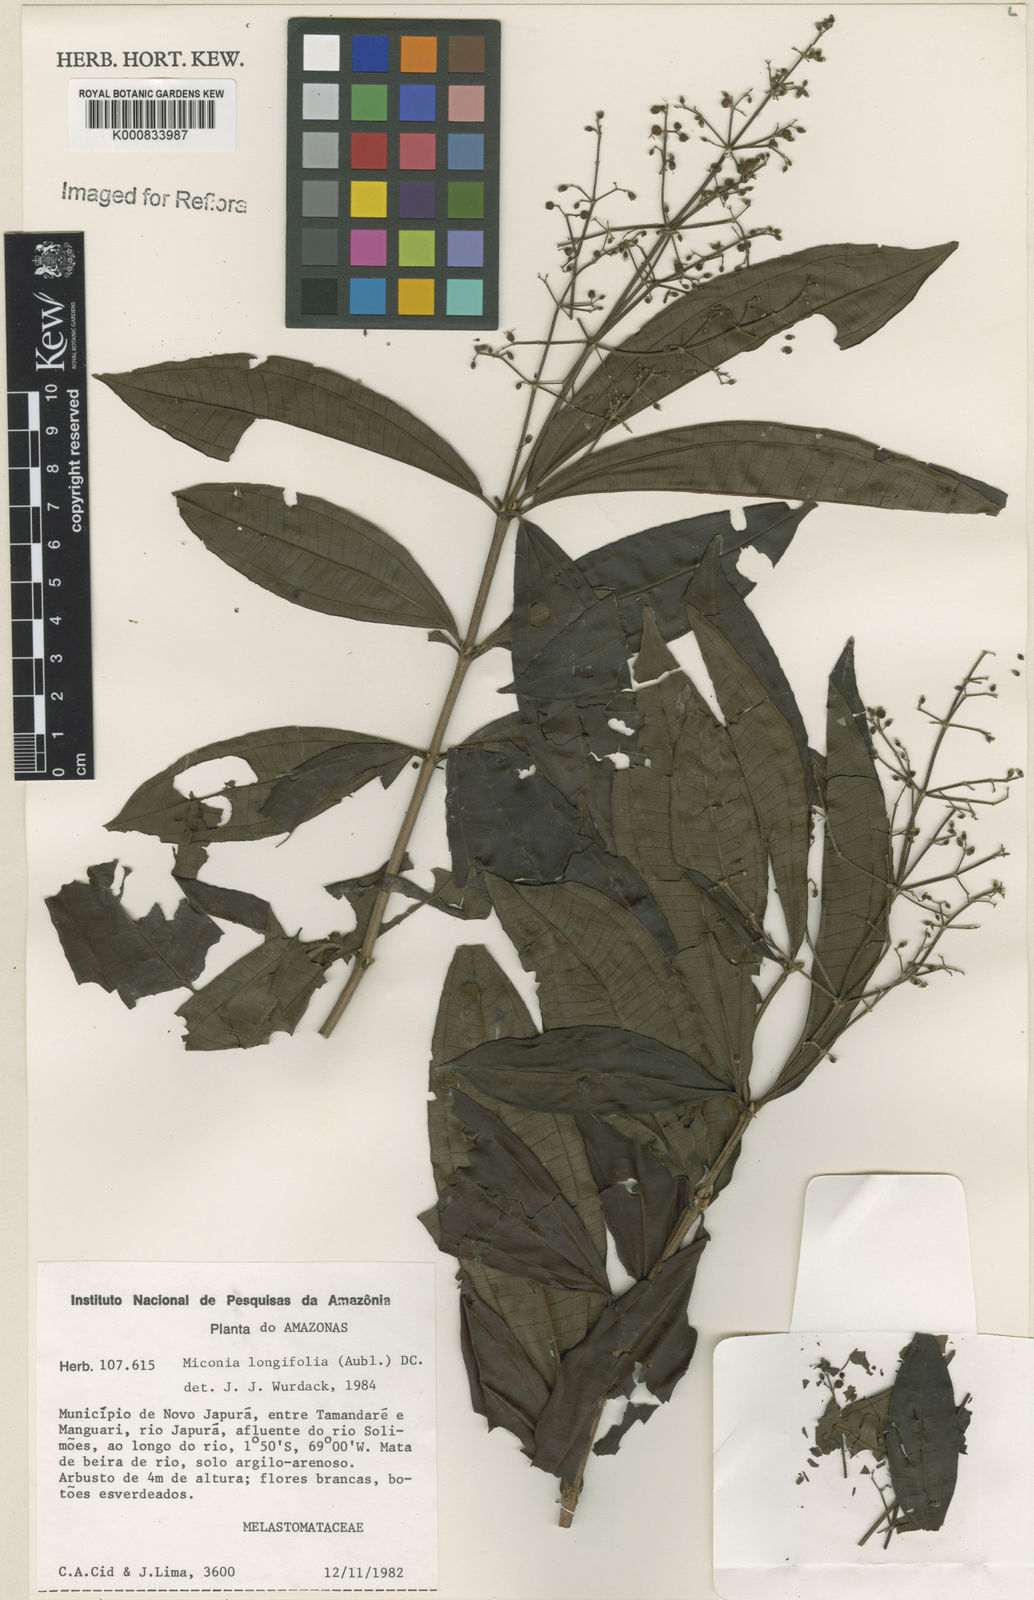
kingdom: Plantae
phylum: Tracheophyta
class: Magnoliopsida
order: Myrtales
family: Melastomataceae
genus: Miconia
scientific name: Miconia longifolia
